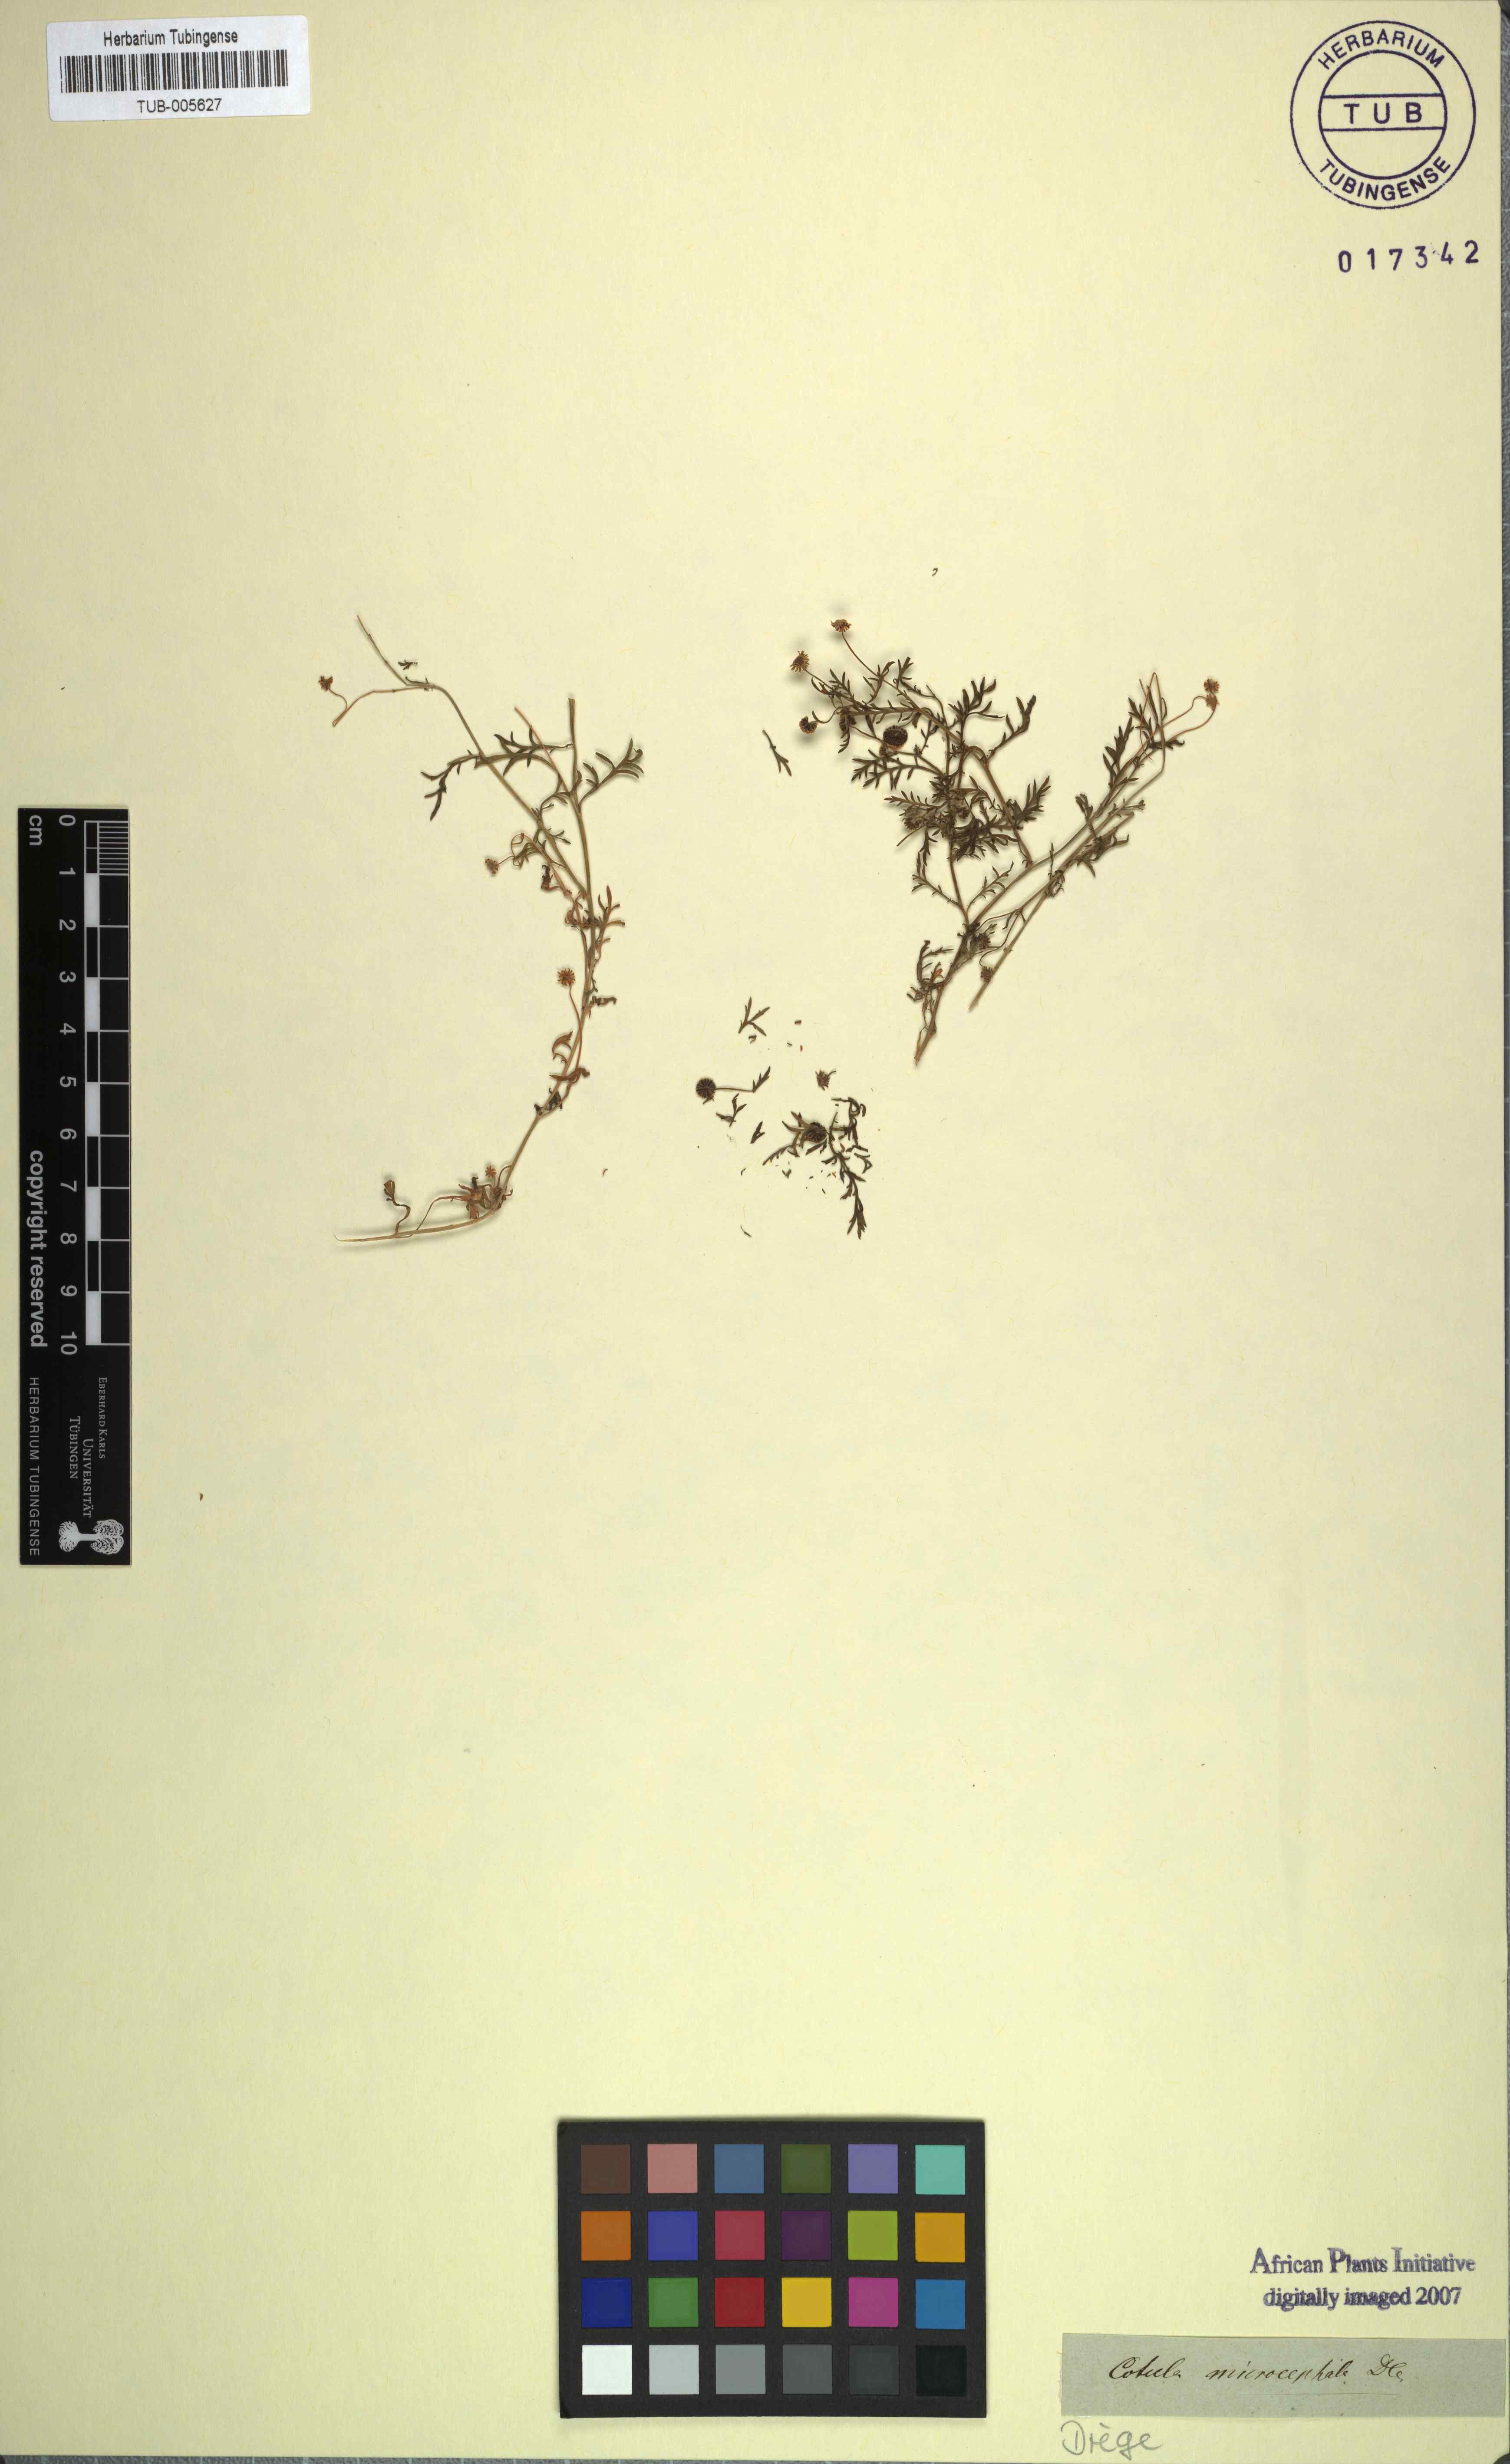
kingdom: Plantae
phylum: Tracheophyta
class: Magnoliopsida
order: Asterales
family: Asteraceae
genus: Cotula
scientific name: Cotula anthemoides
